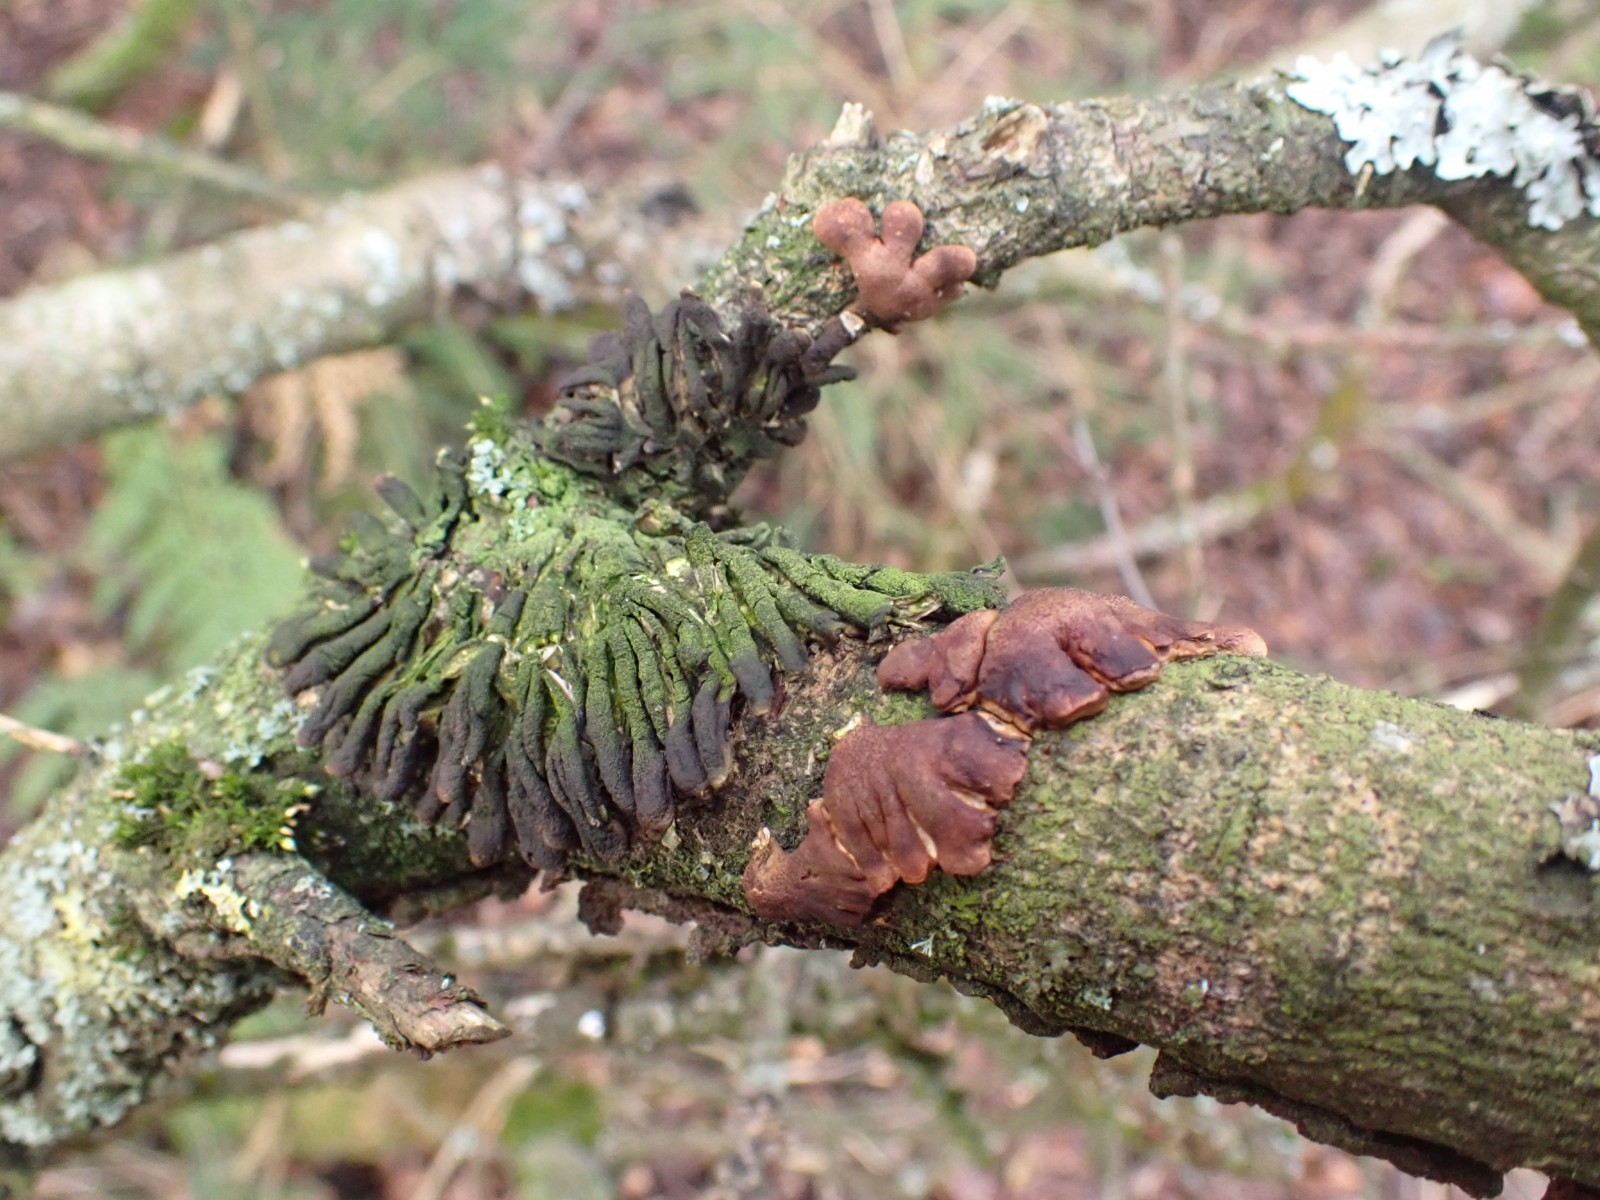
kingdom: Fungi
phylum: Ascomycota
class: Sordariomycetes
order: Hypocreales
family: Hypocreaceae
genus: Hypocreopsis
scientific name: Hypocreopsis lichenoides
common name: pilfinger
